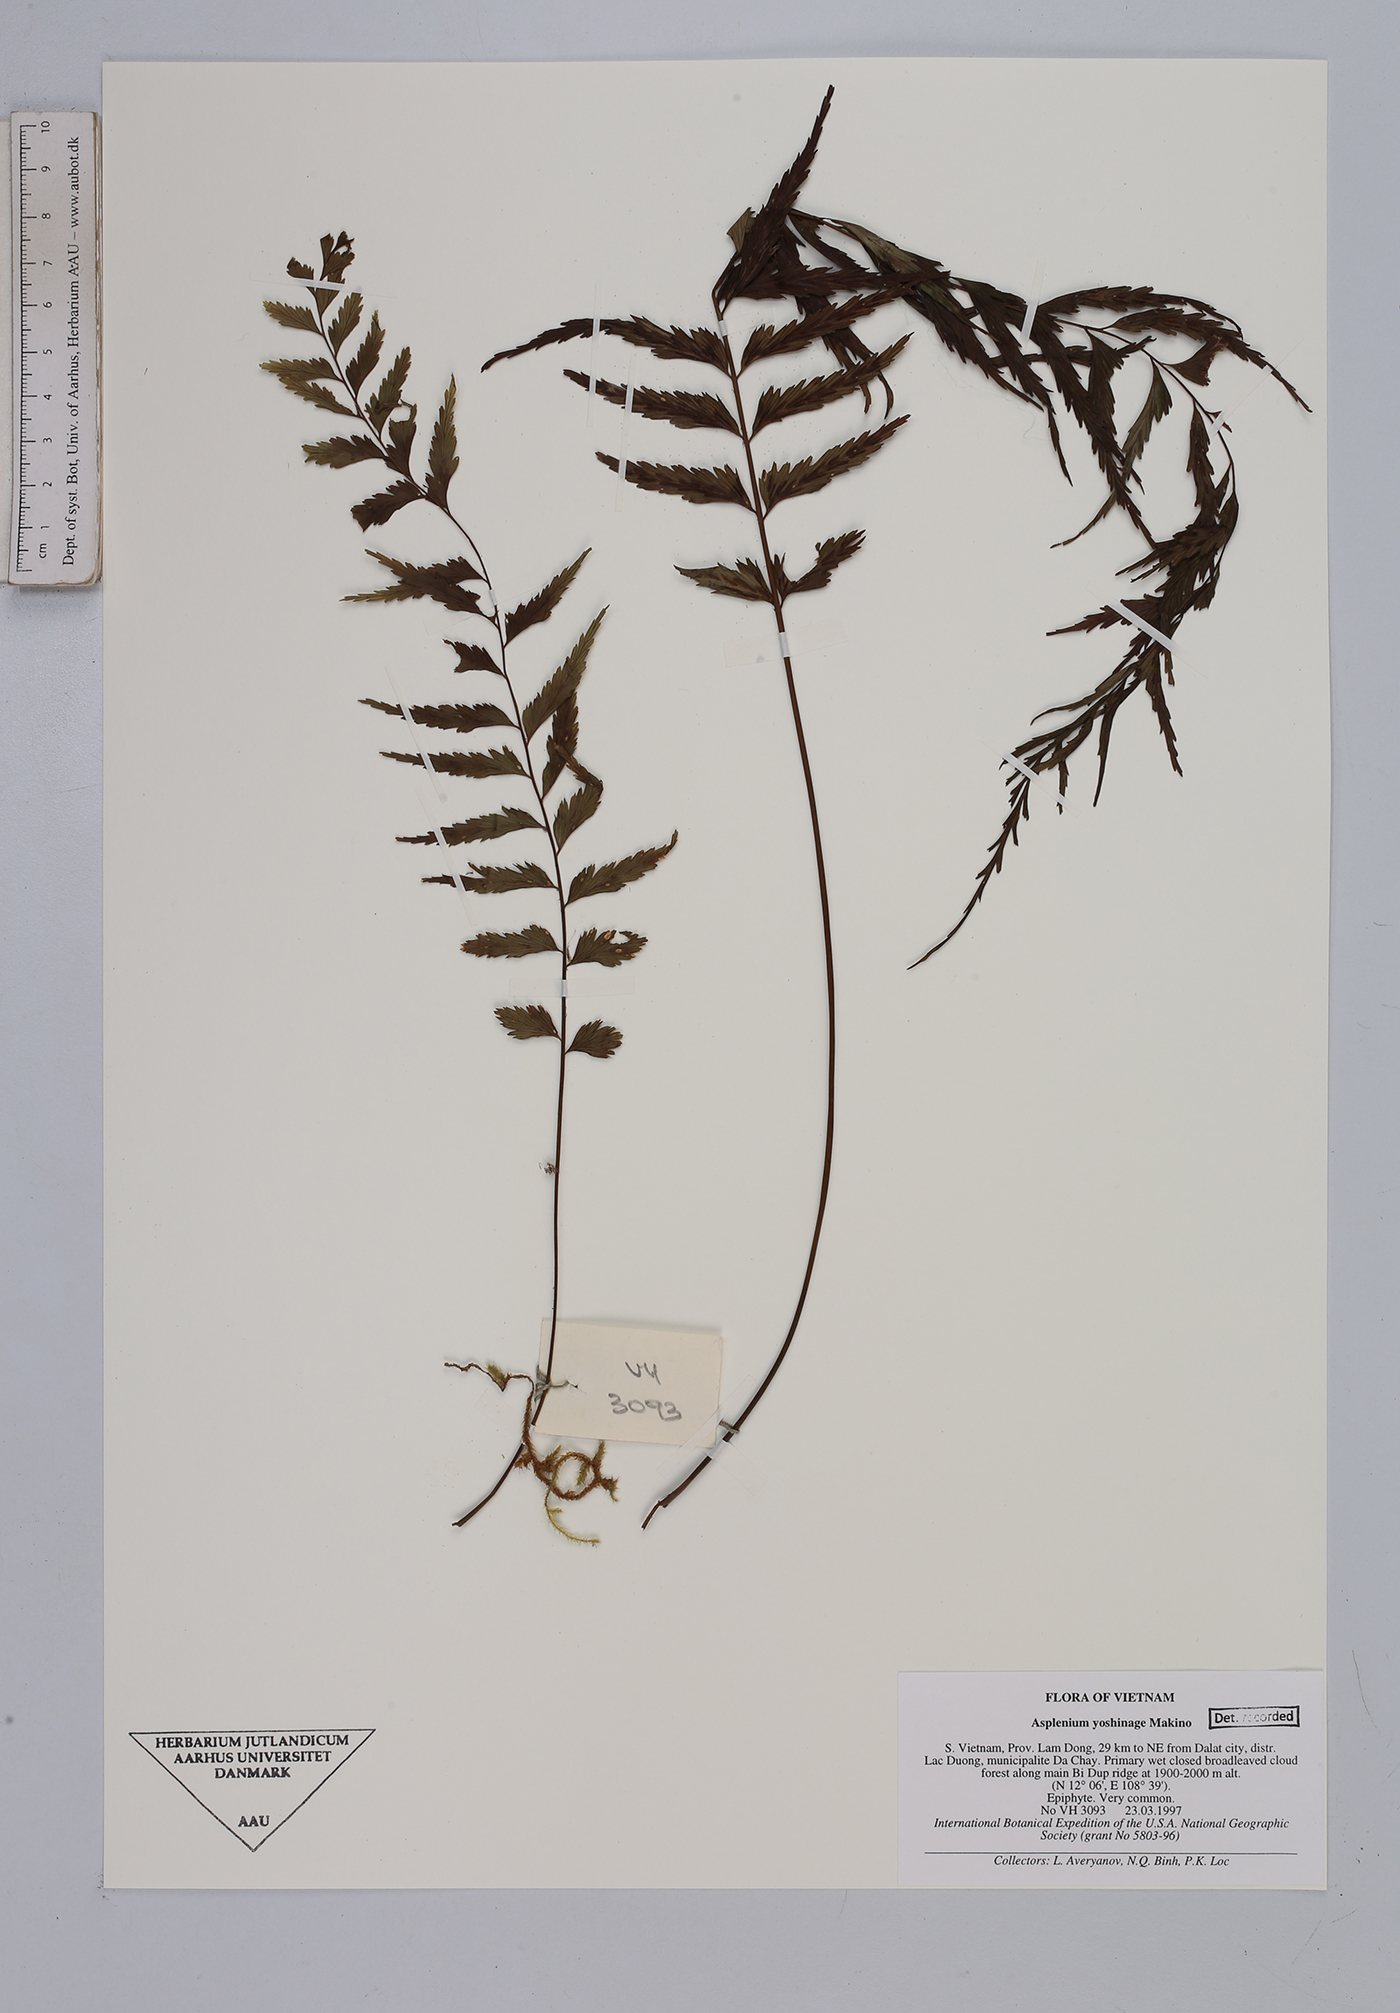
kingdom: Plantae
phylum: Tracheophyta
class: Polypodiopsida
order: Polypodiales
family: Aspleniaceae
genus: Asplenium
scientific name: Asplenium yoshinagae
